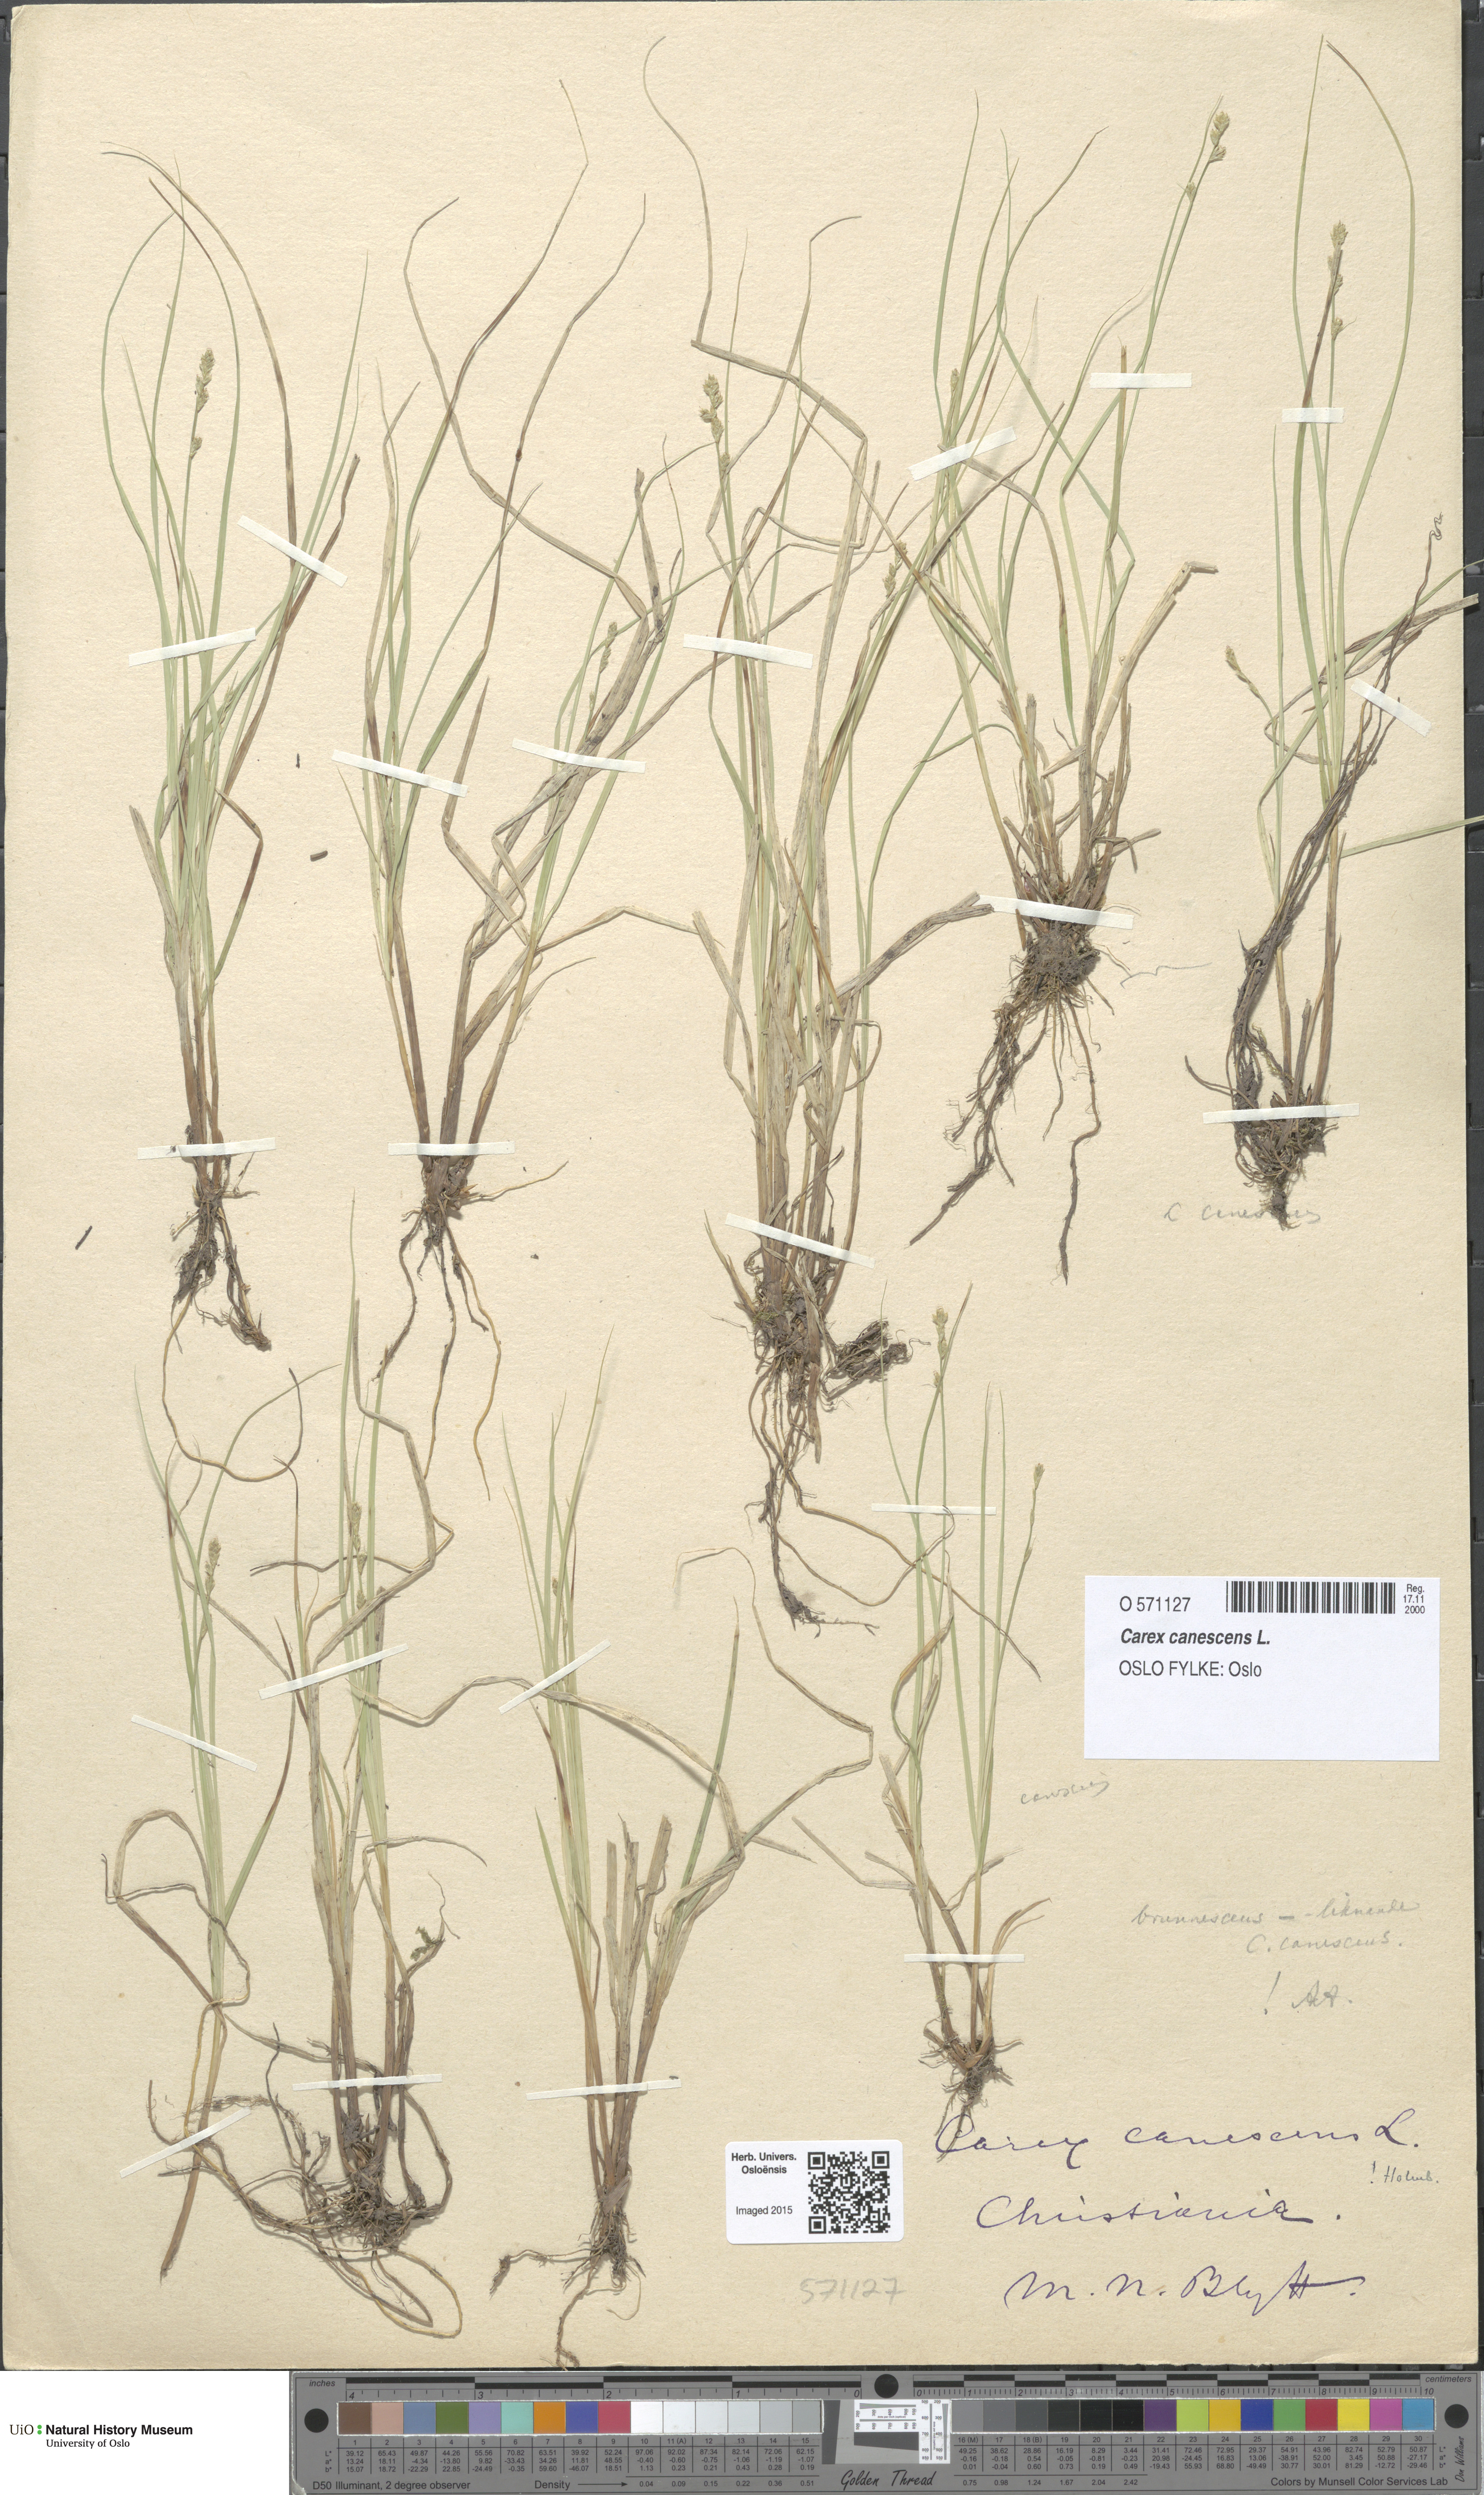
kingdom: Plantae
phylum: Tracheophyta
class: Liliopsida
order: Poales
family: Cyperaceae
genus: Carex
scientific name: Carex canescens
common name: White sedge
